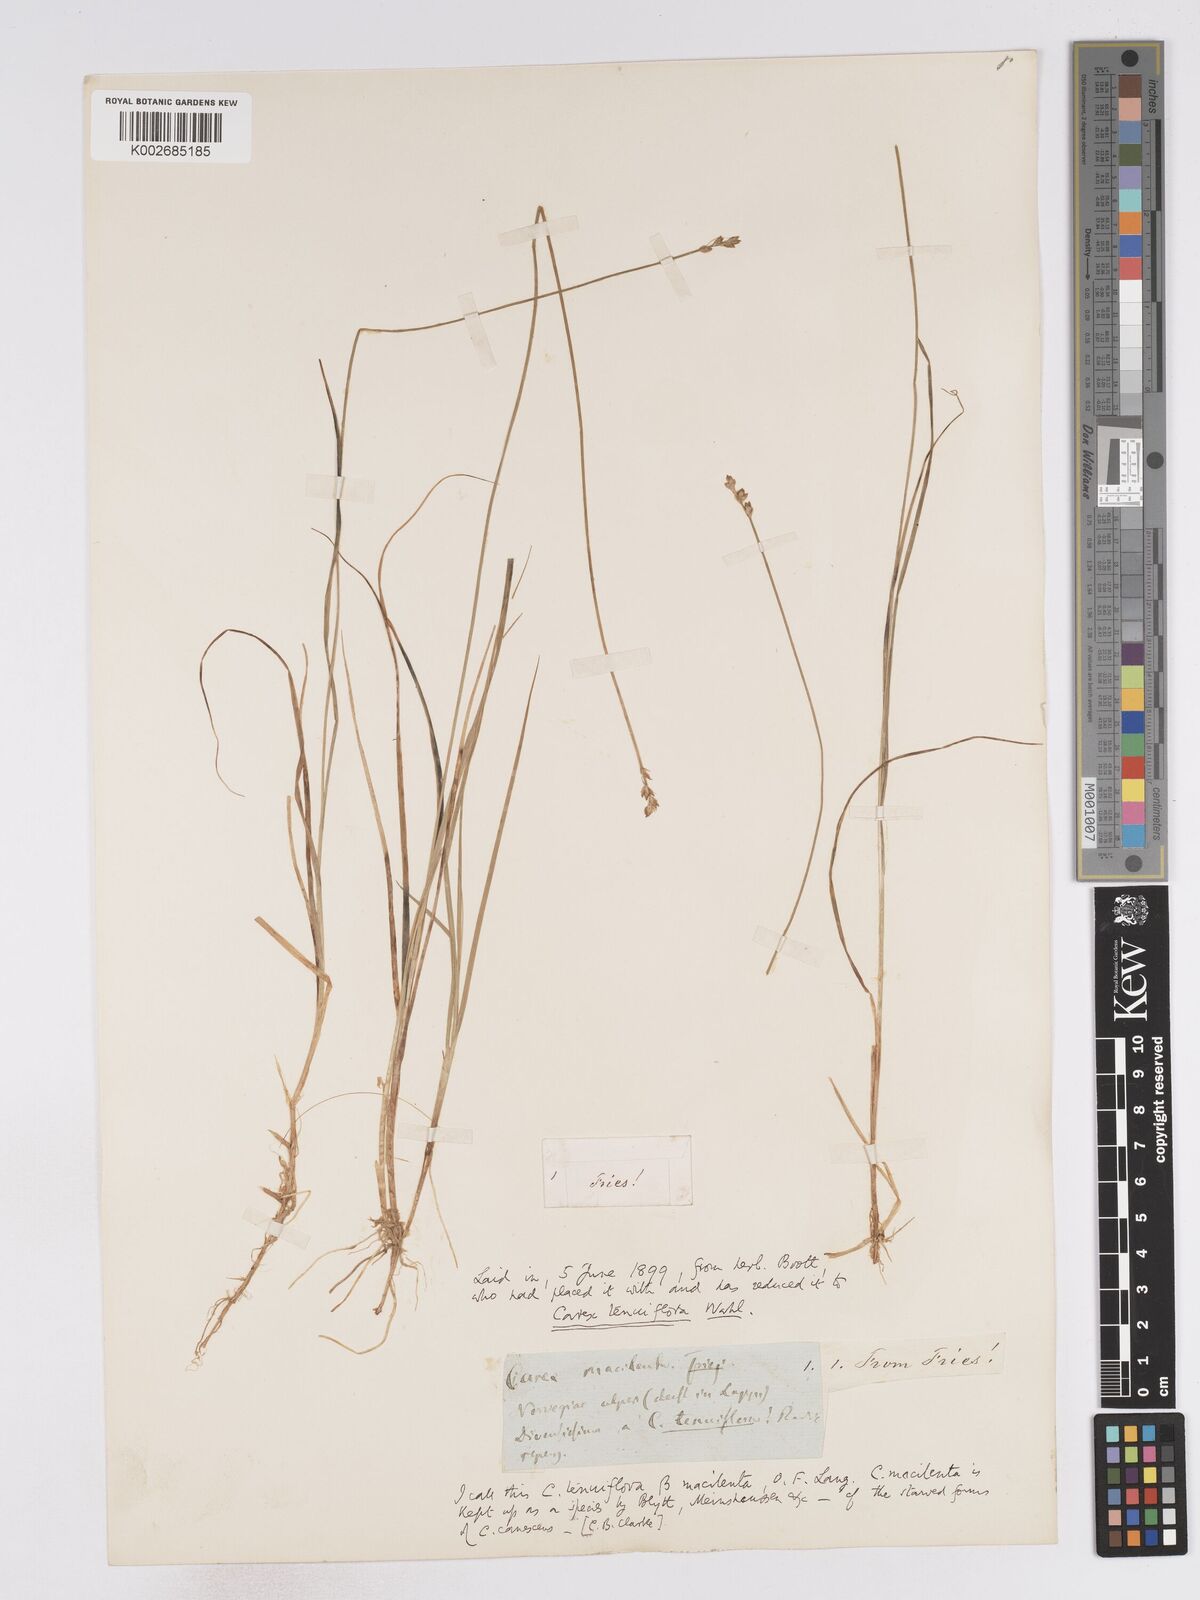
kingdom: Plantae
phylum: Tracheophyta
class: Liliopsida
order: Poales
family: Cyperaceae
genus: Carex
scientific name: Carex tenuiflora
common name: Sparse-flowered sedge
